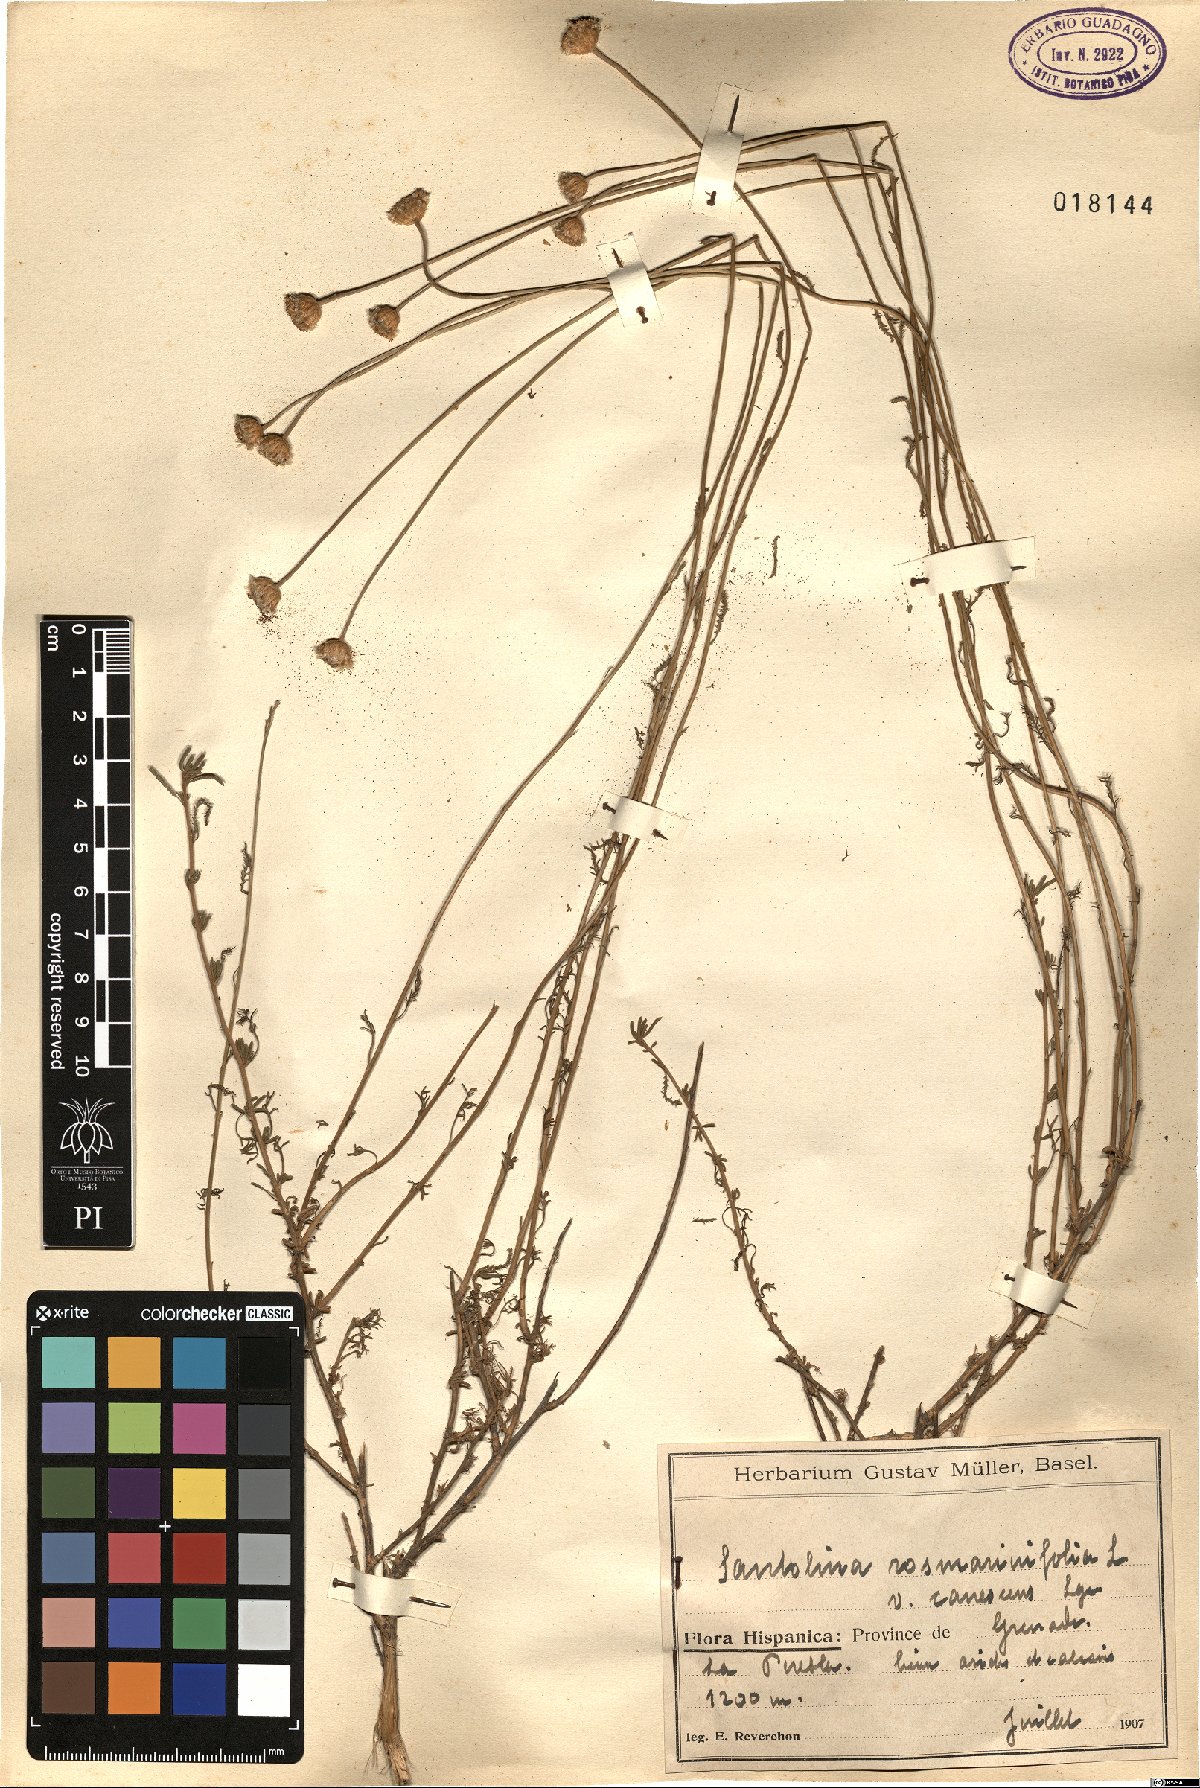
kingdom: Plantae
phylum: Tracheophyta
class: Magnoliopsida
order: Asterales
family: Asteraceae
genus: Santolina
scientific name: Santolina canescens
